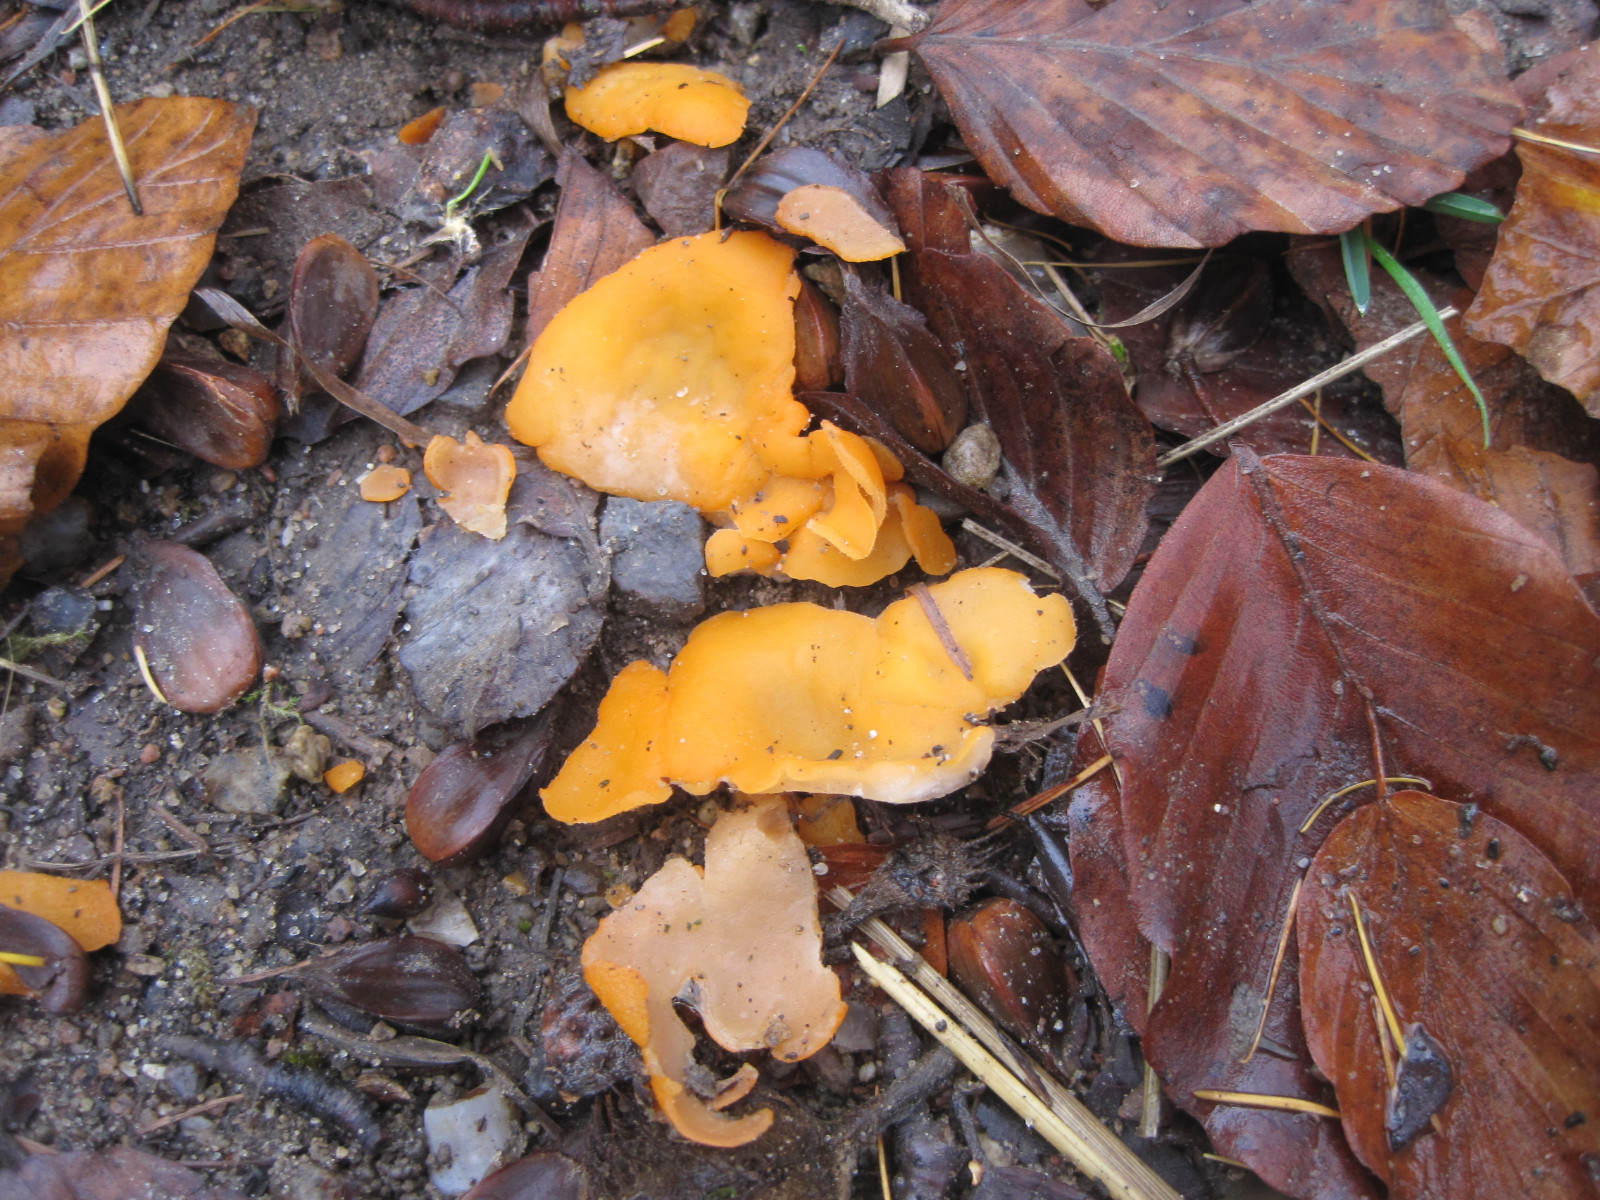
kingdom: Fungi
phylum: Ascomycota
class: Pezizomycetes
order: Pezizales
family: Pyronemataceae
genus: Aleuria
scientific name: Aleuria aurantia
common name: almindelig orangebæger
